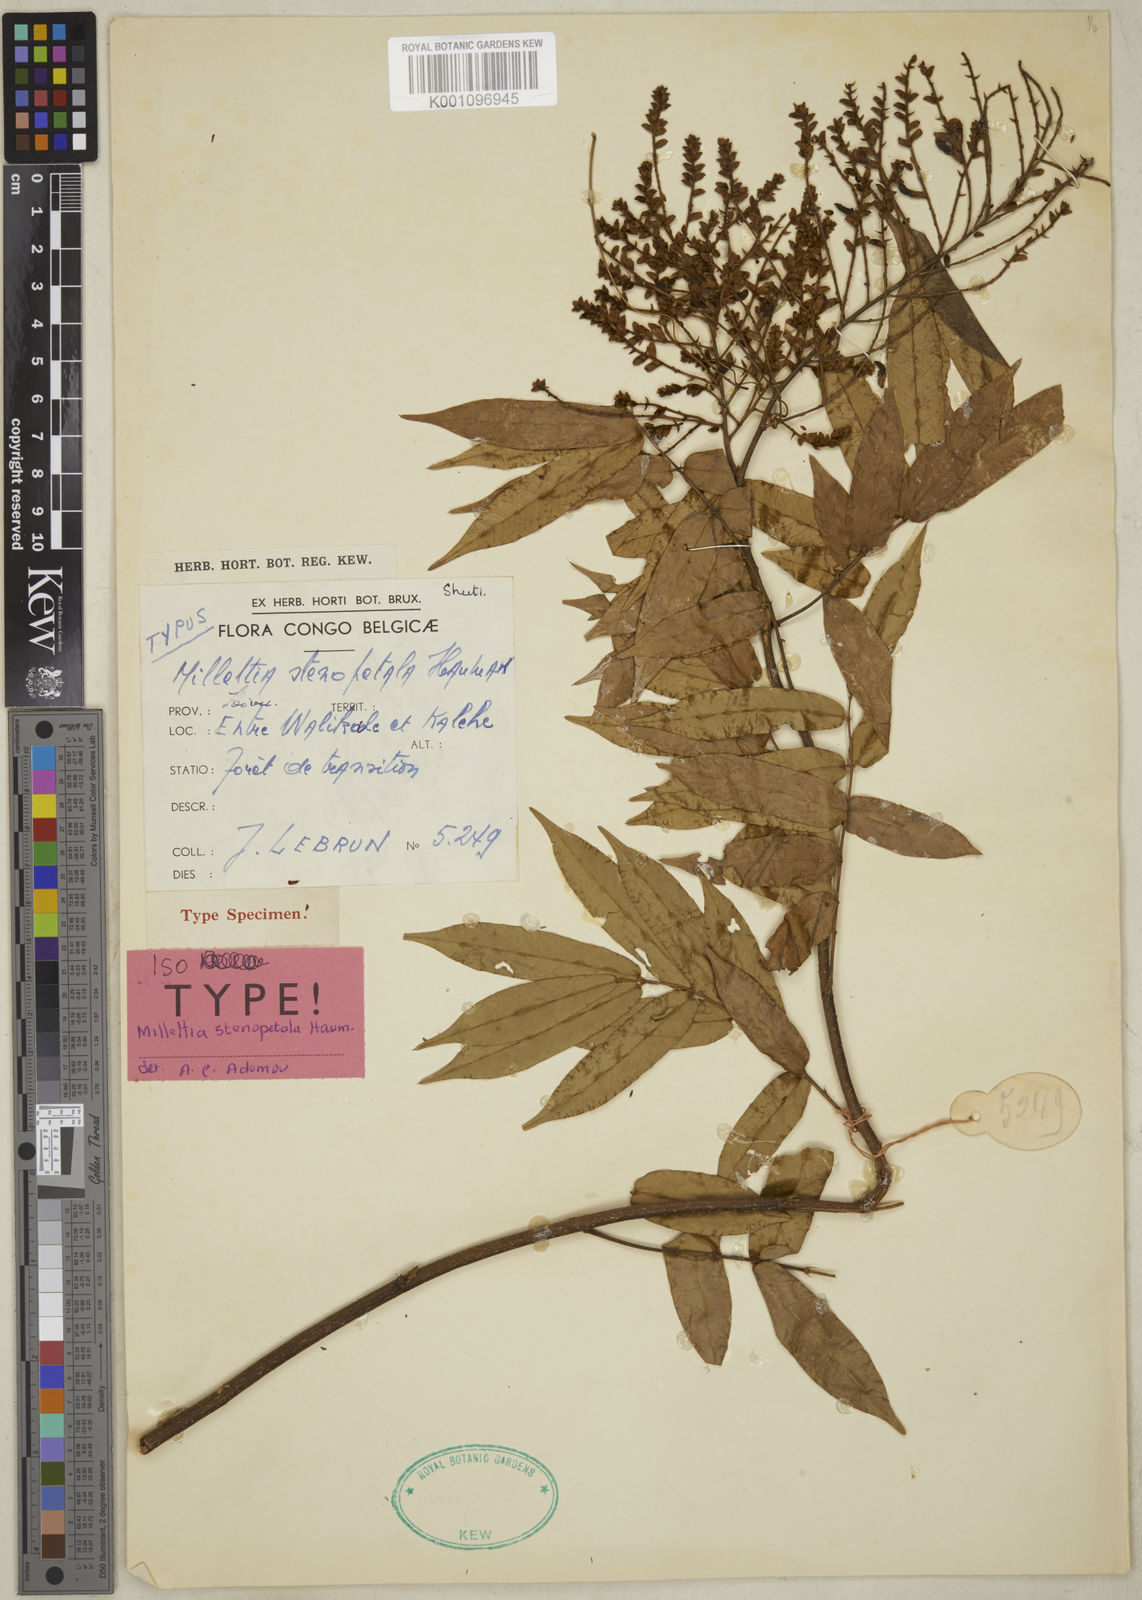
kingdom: Plantae
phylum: Tracheophyta
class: Magnoliopsida
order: Fabales
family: Fabaceae
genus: Millettia
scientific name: Millettia stenopetala
